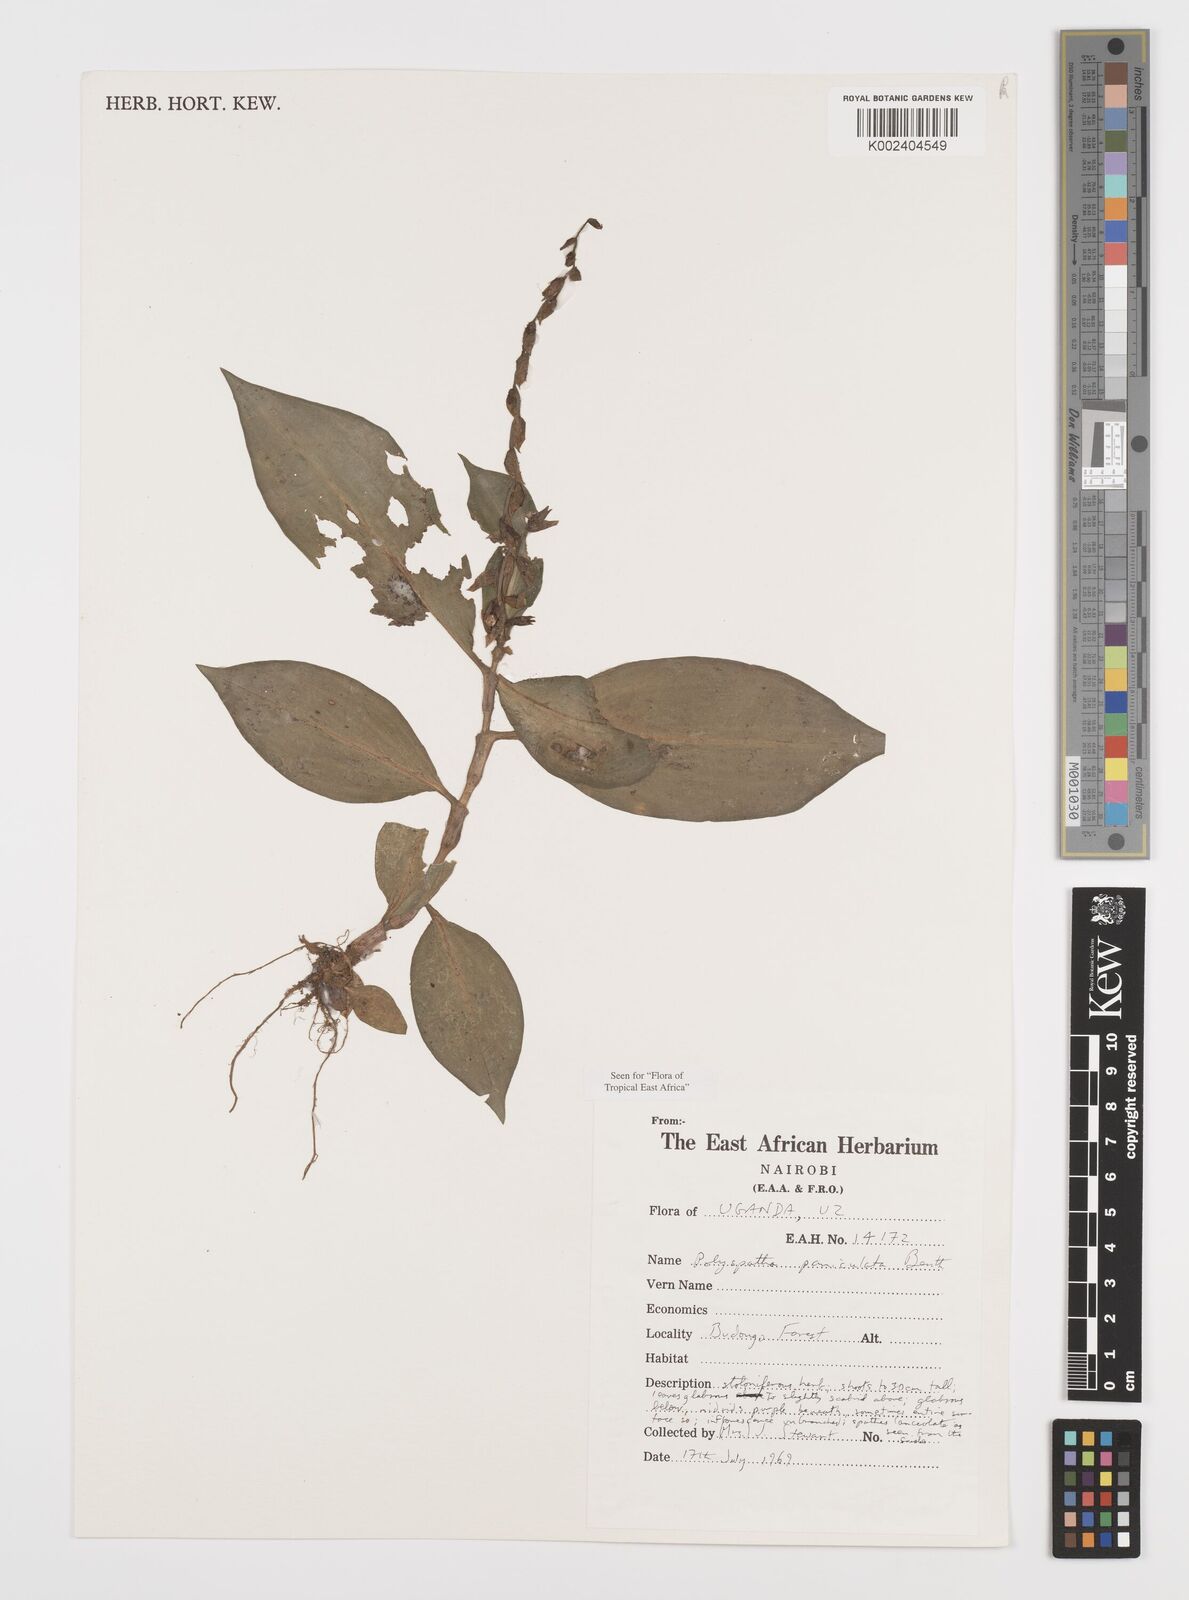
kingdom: Plantae
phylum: Tracheophyta
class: Liliopsida
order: Commelinales
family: Commelinaceae
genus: Polyspatha
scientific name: Polyspatha paniculata
